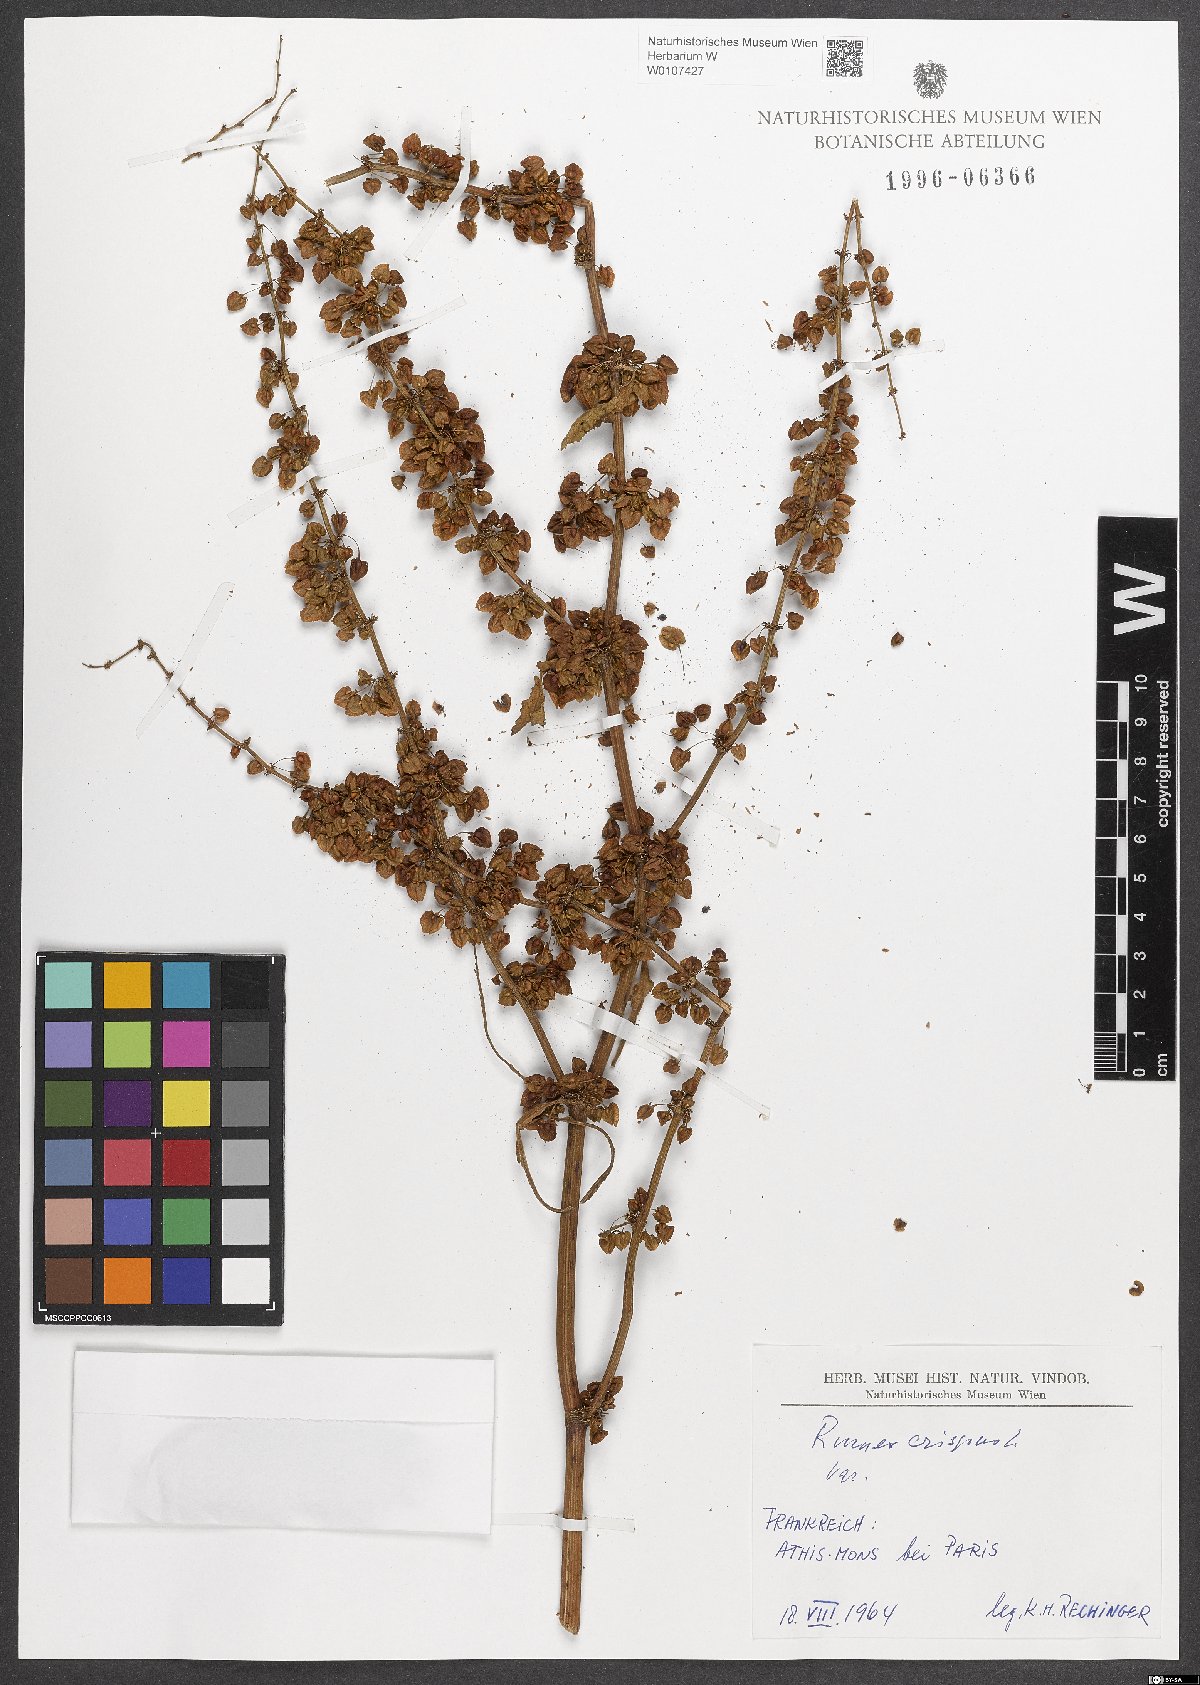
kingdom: Plantae
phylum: Tracheophyta
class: Magnoliopsida
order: Caryophyllales
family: Polygonaceae
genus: Rumex
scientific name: Rumex crispus
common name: Curled dock
